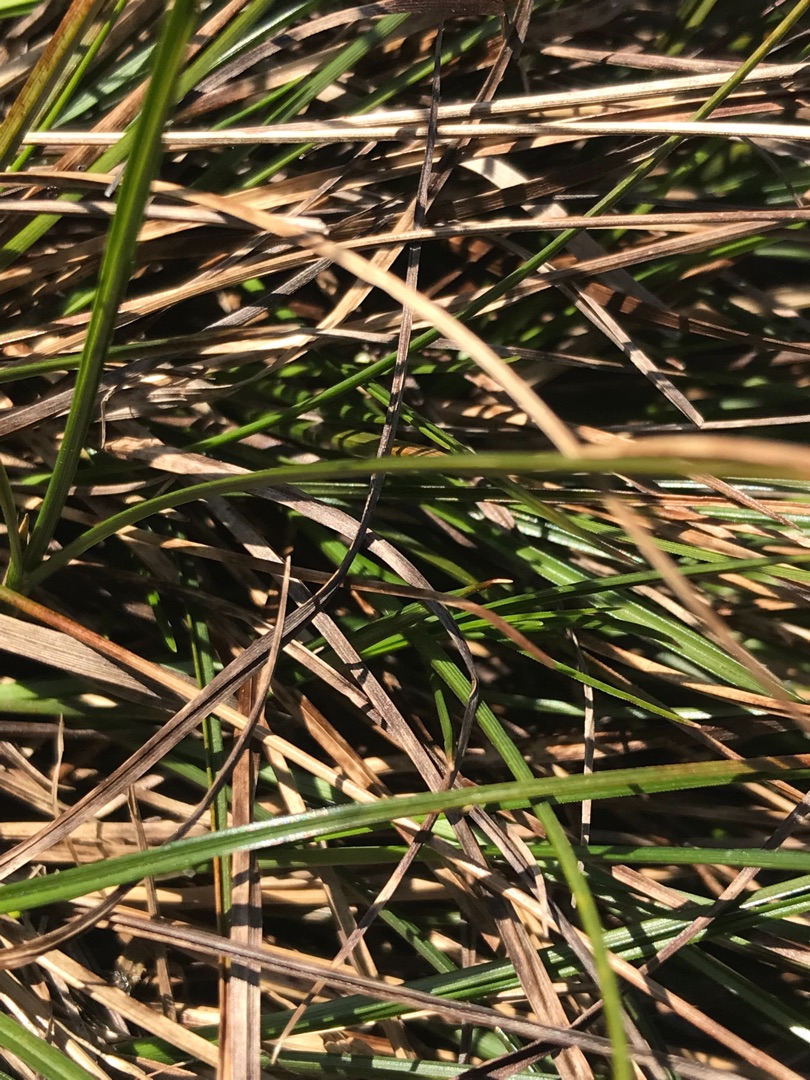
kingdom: Plantae
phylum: Tracheophyta
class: Liliopsida
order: Poales
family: Cyperaceae
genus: Carex
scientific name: Carex echinata
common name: Stjerne-star
